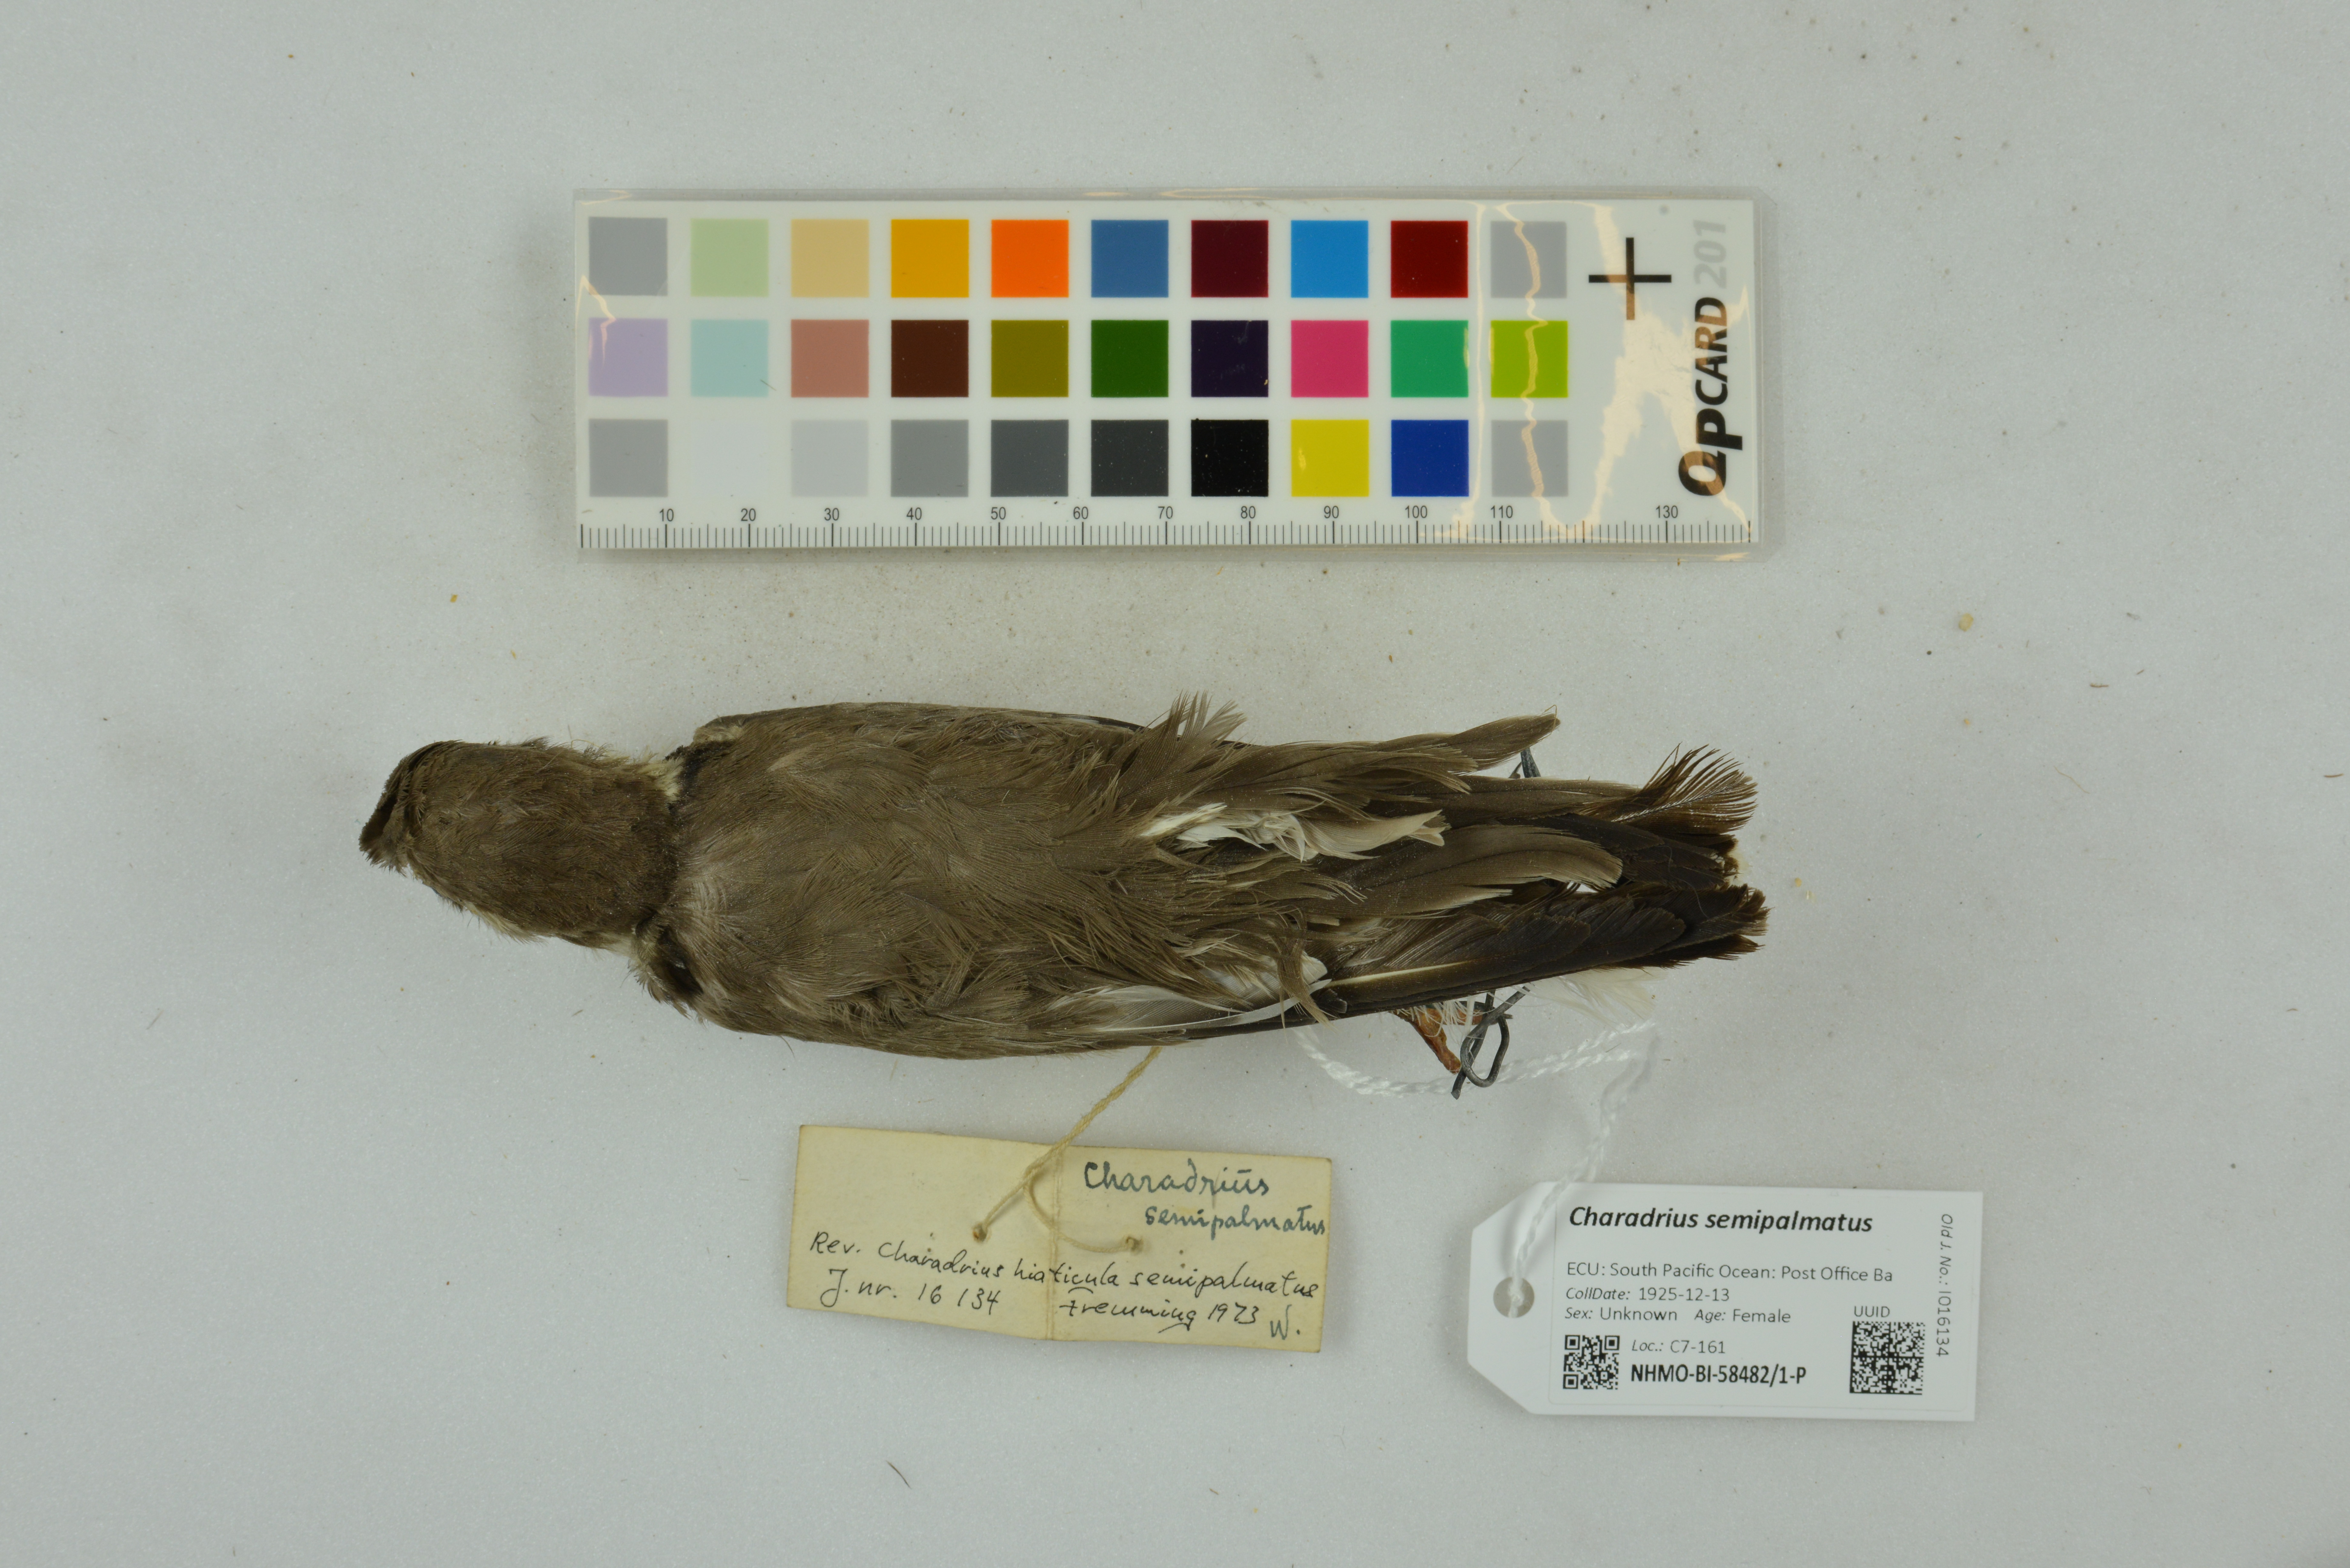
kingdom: Animalia
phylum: Chordata
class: Aves
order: Charadriiformes
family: Charadriidae
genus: Charadrius
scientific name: Charadrius semipalmatus
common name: Semipalmated plover
